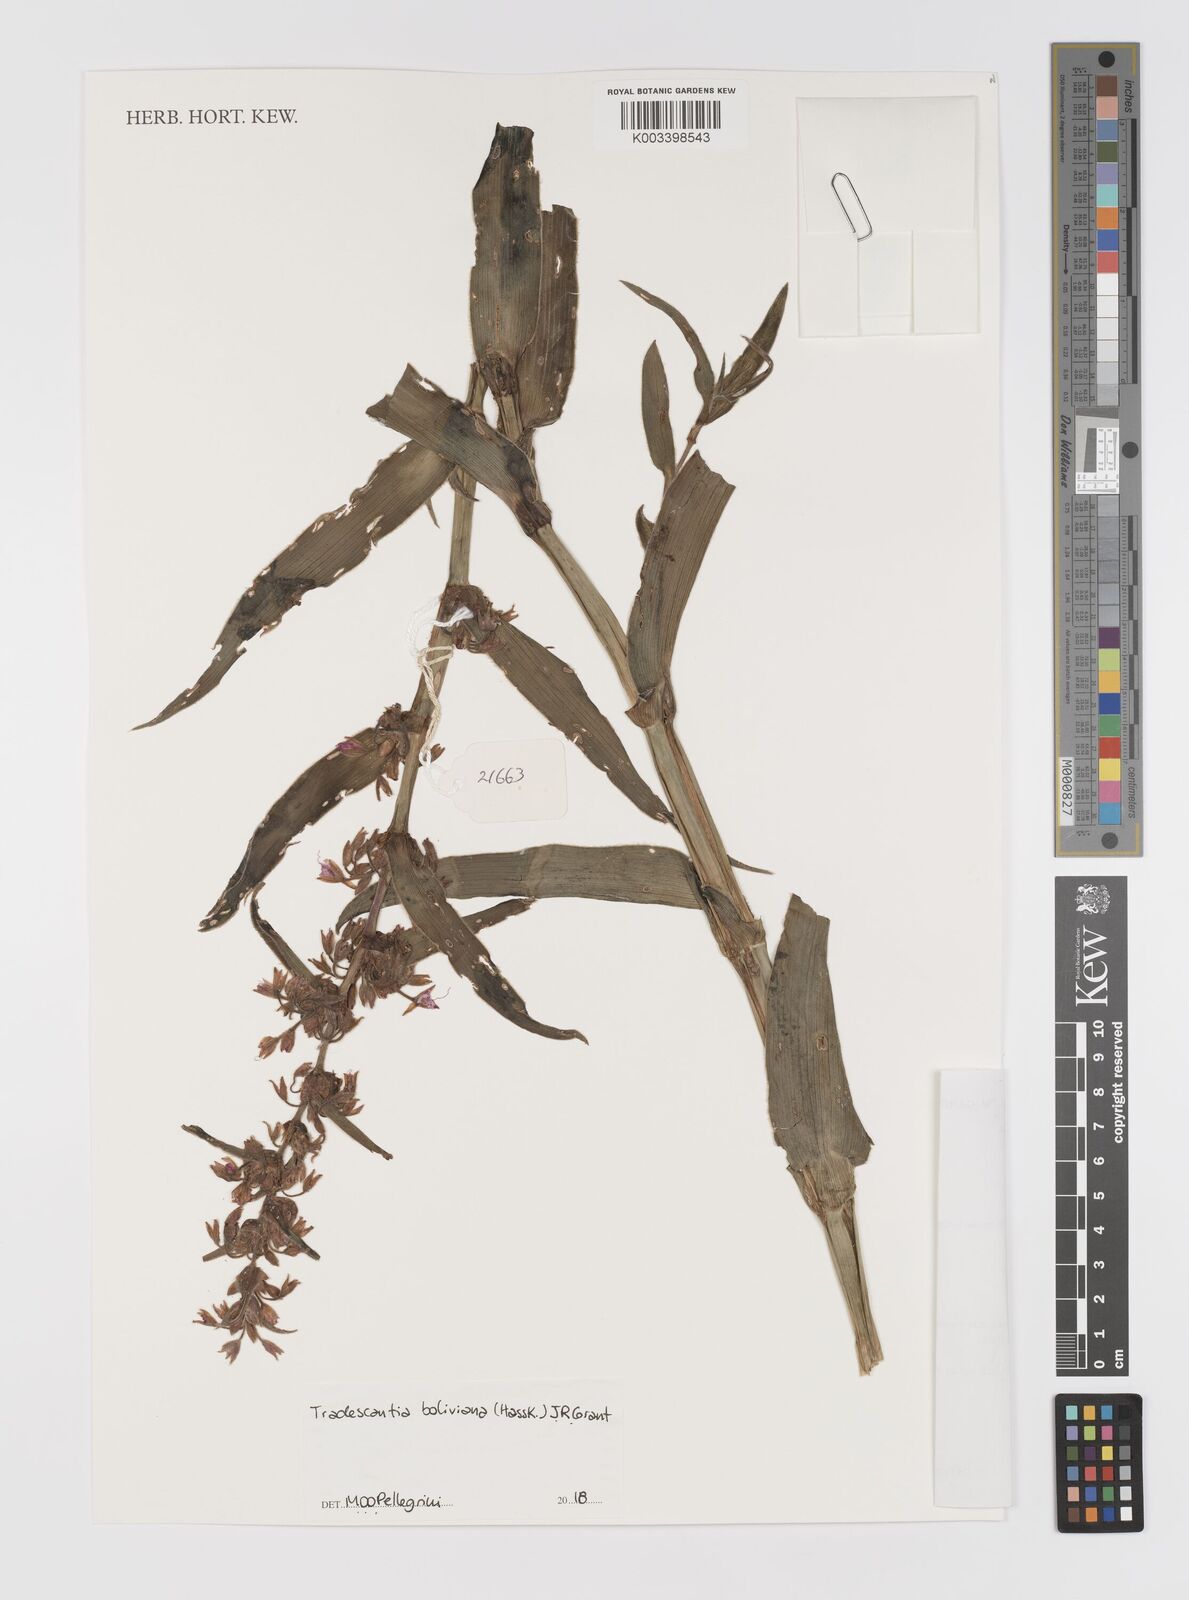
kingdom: Plantae
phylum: Tracheophyta
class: Liliopsida
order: Commelinales
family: Commelinaceae
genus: Tradescantia
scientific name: Tradescantia boliviana
